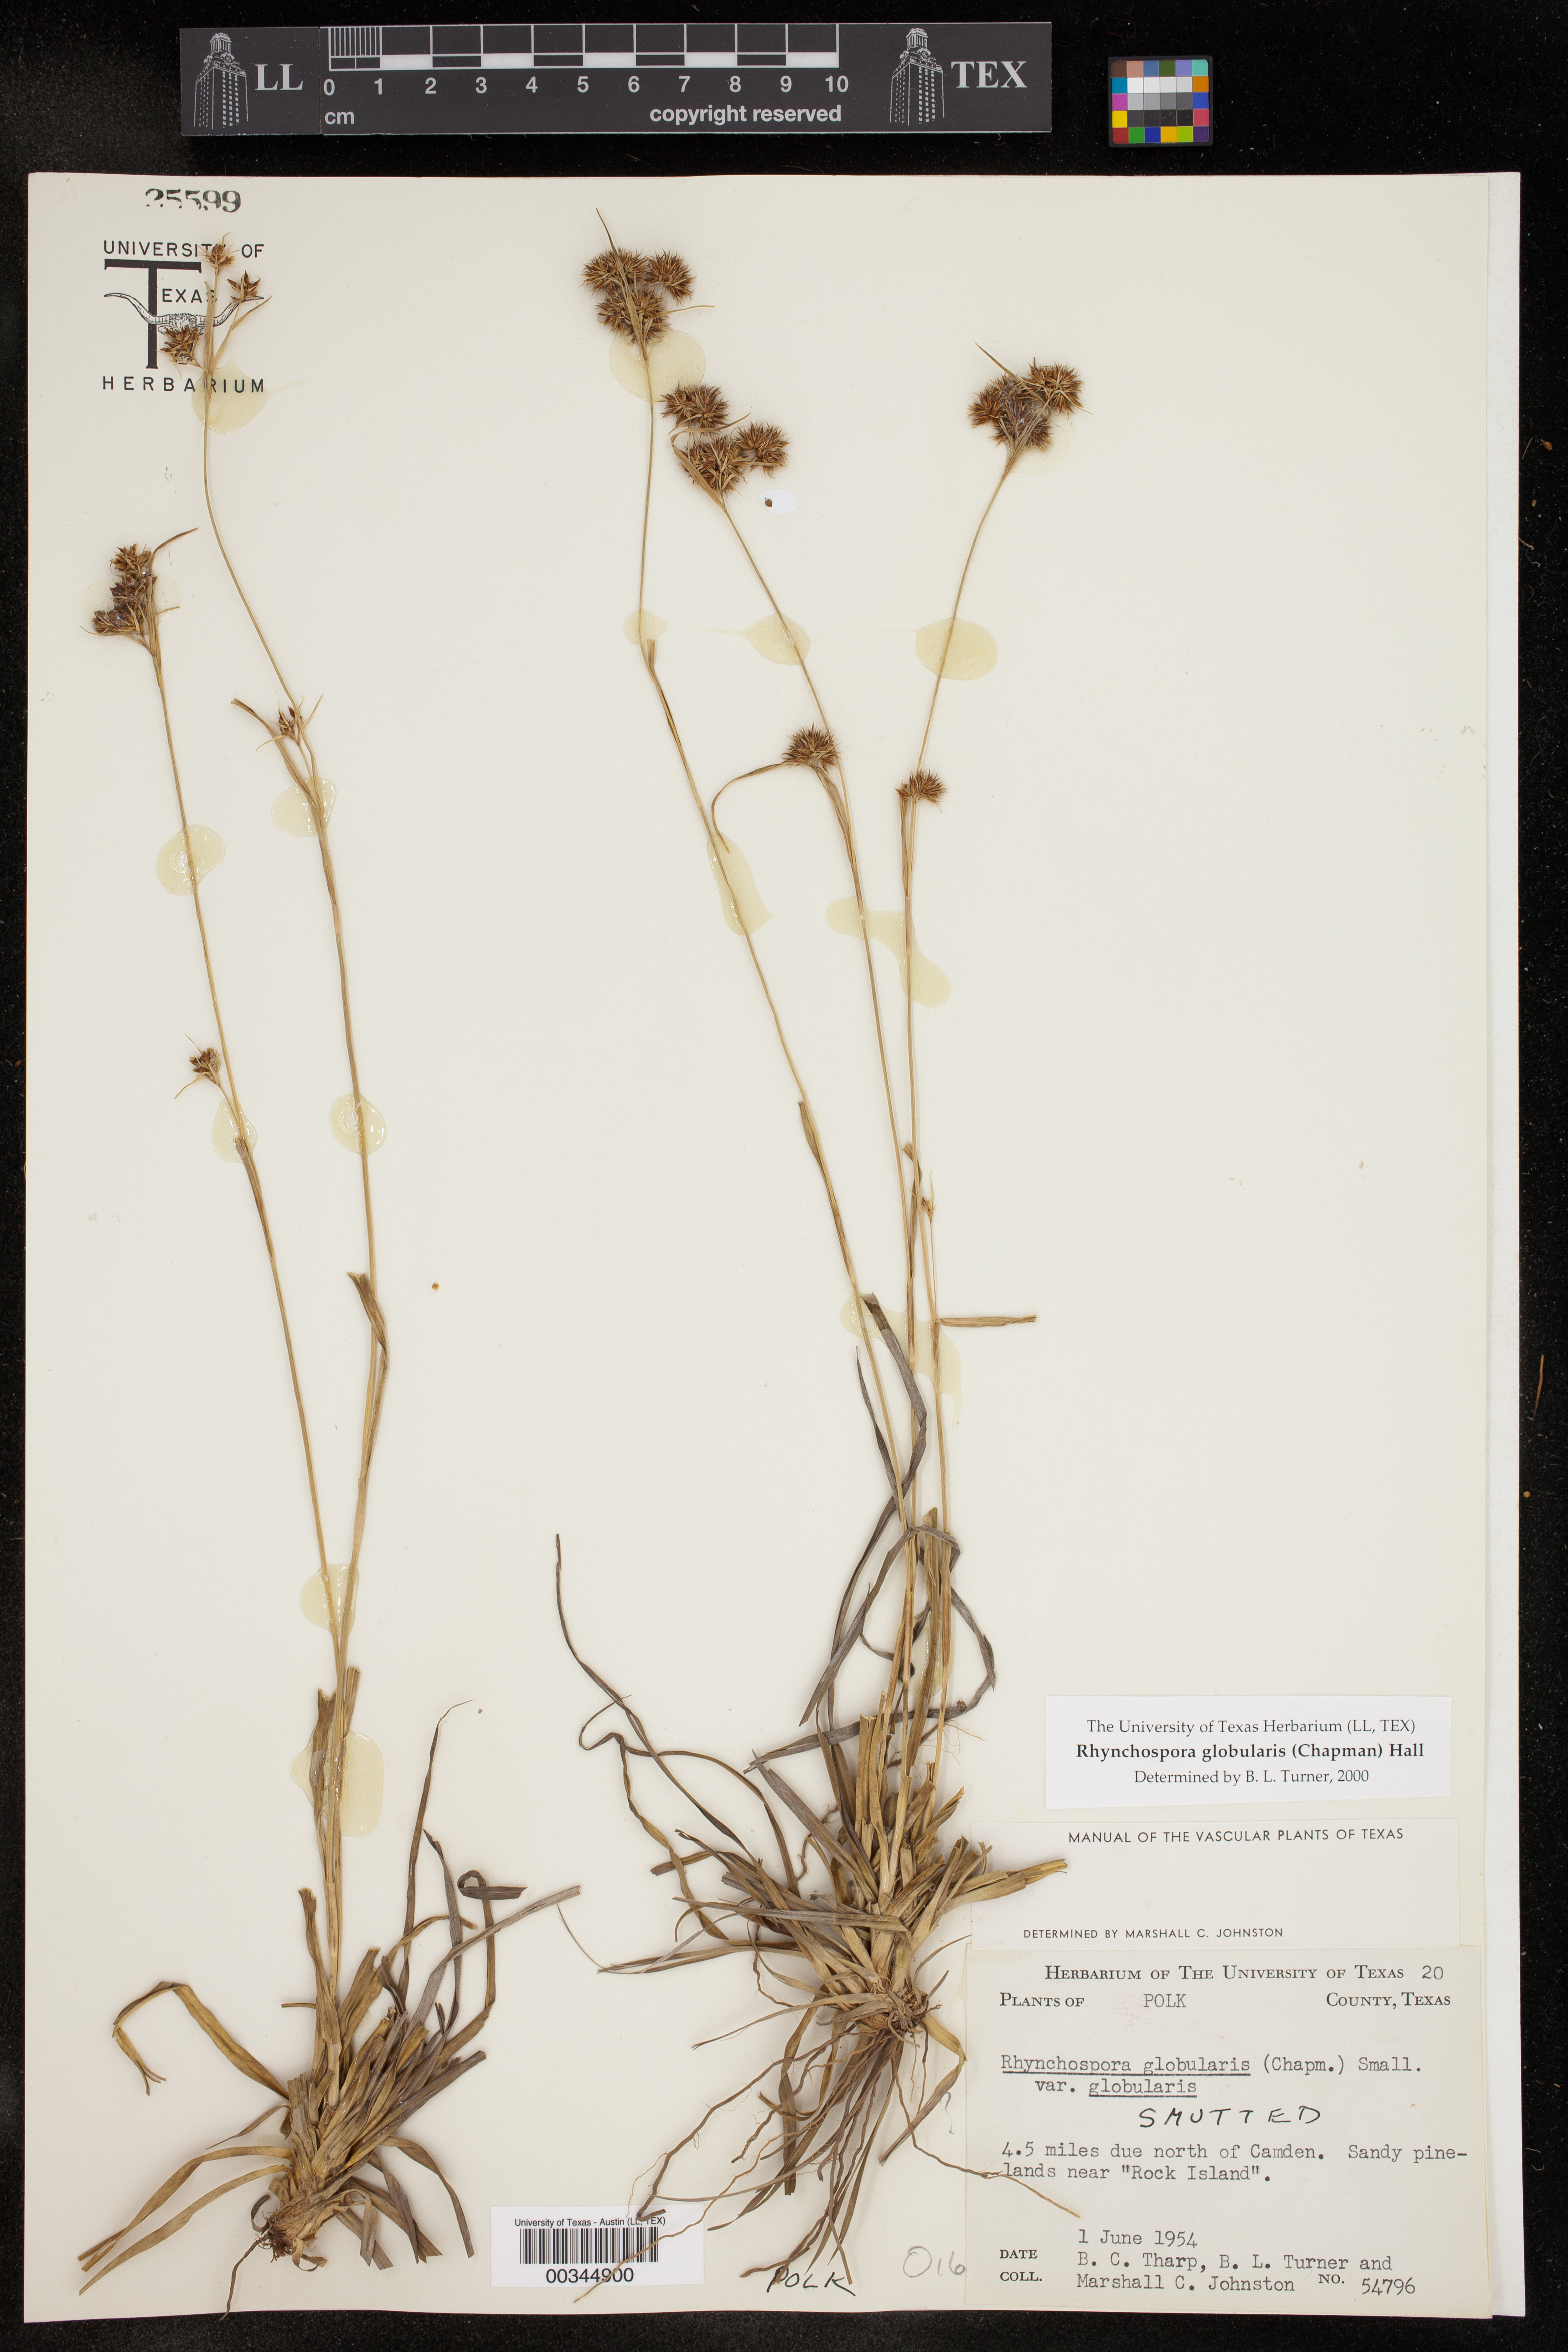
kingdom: Plantae
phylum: Tracheophyta
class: Liliopsida
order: Poales
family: Cyperaceae
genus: Rhynchospora
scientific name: Rhynchospora globularis
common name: Globe beaksedge
